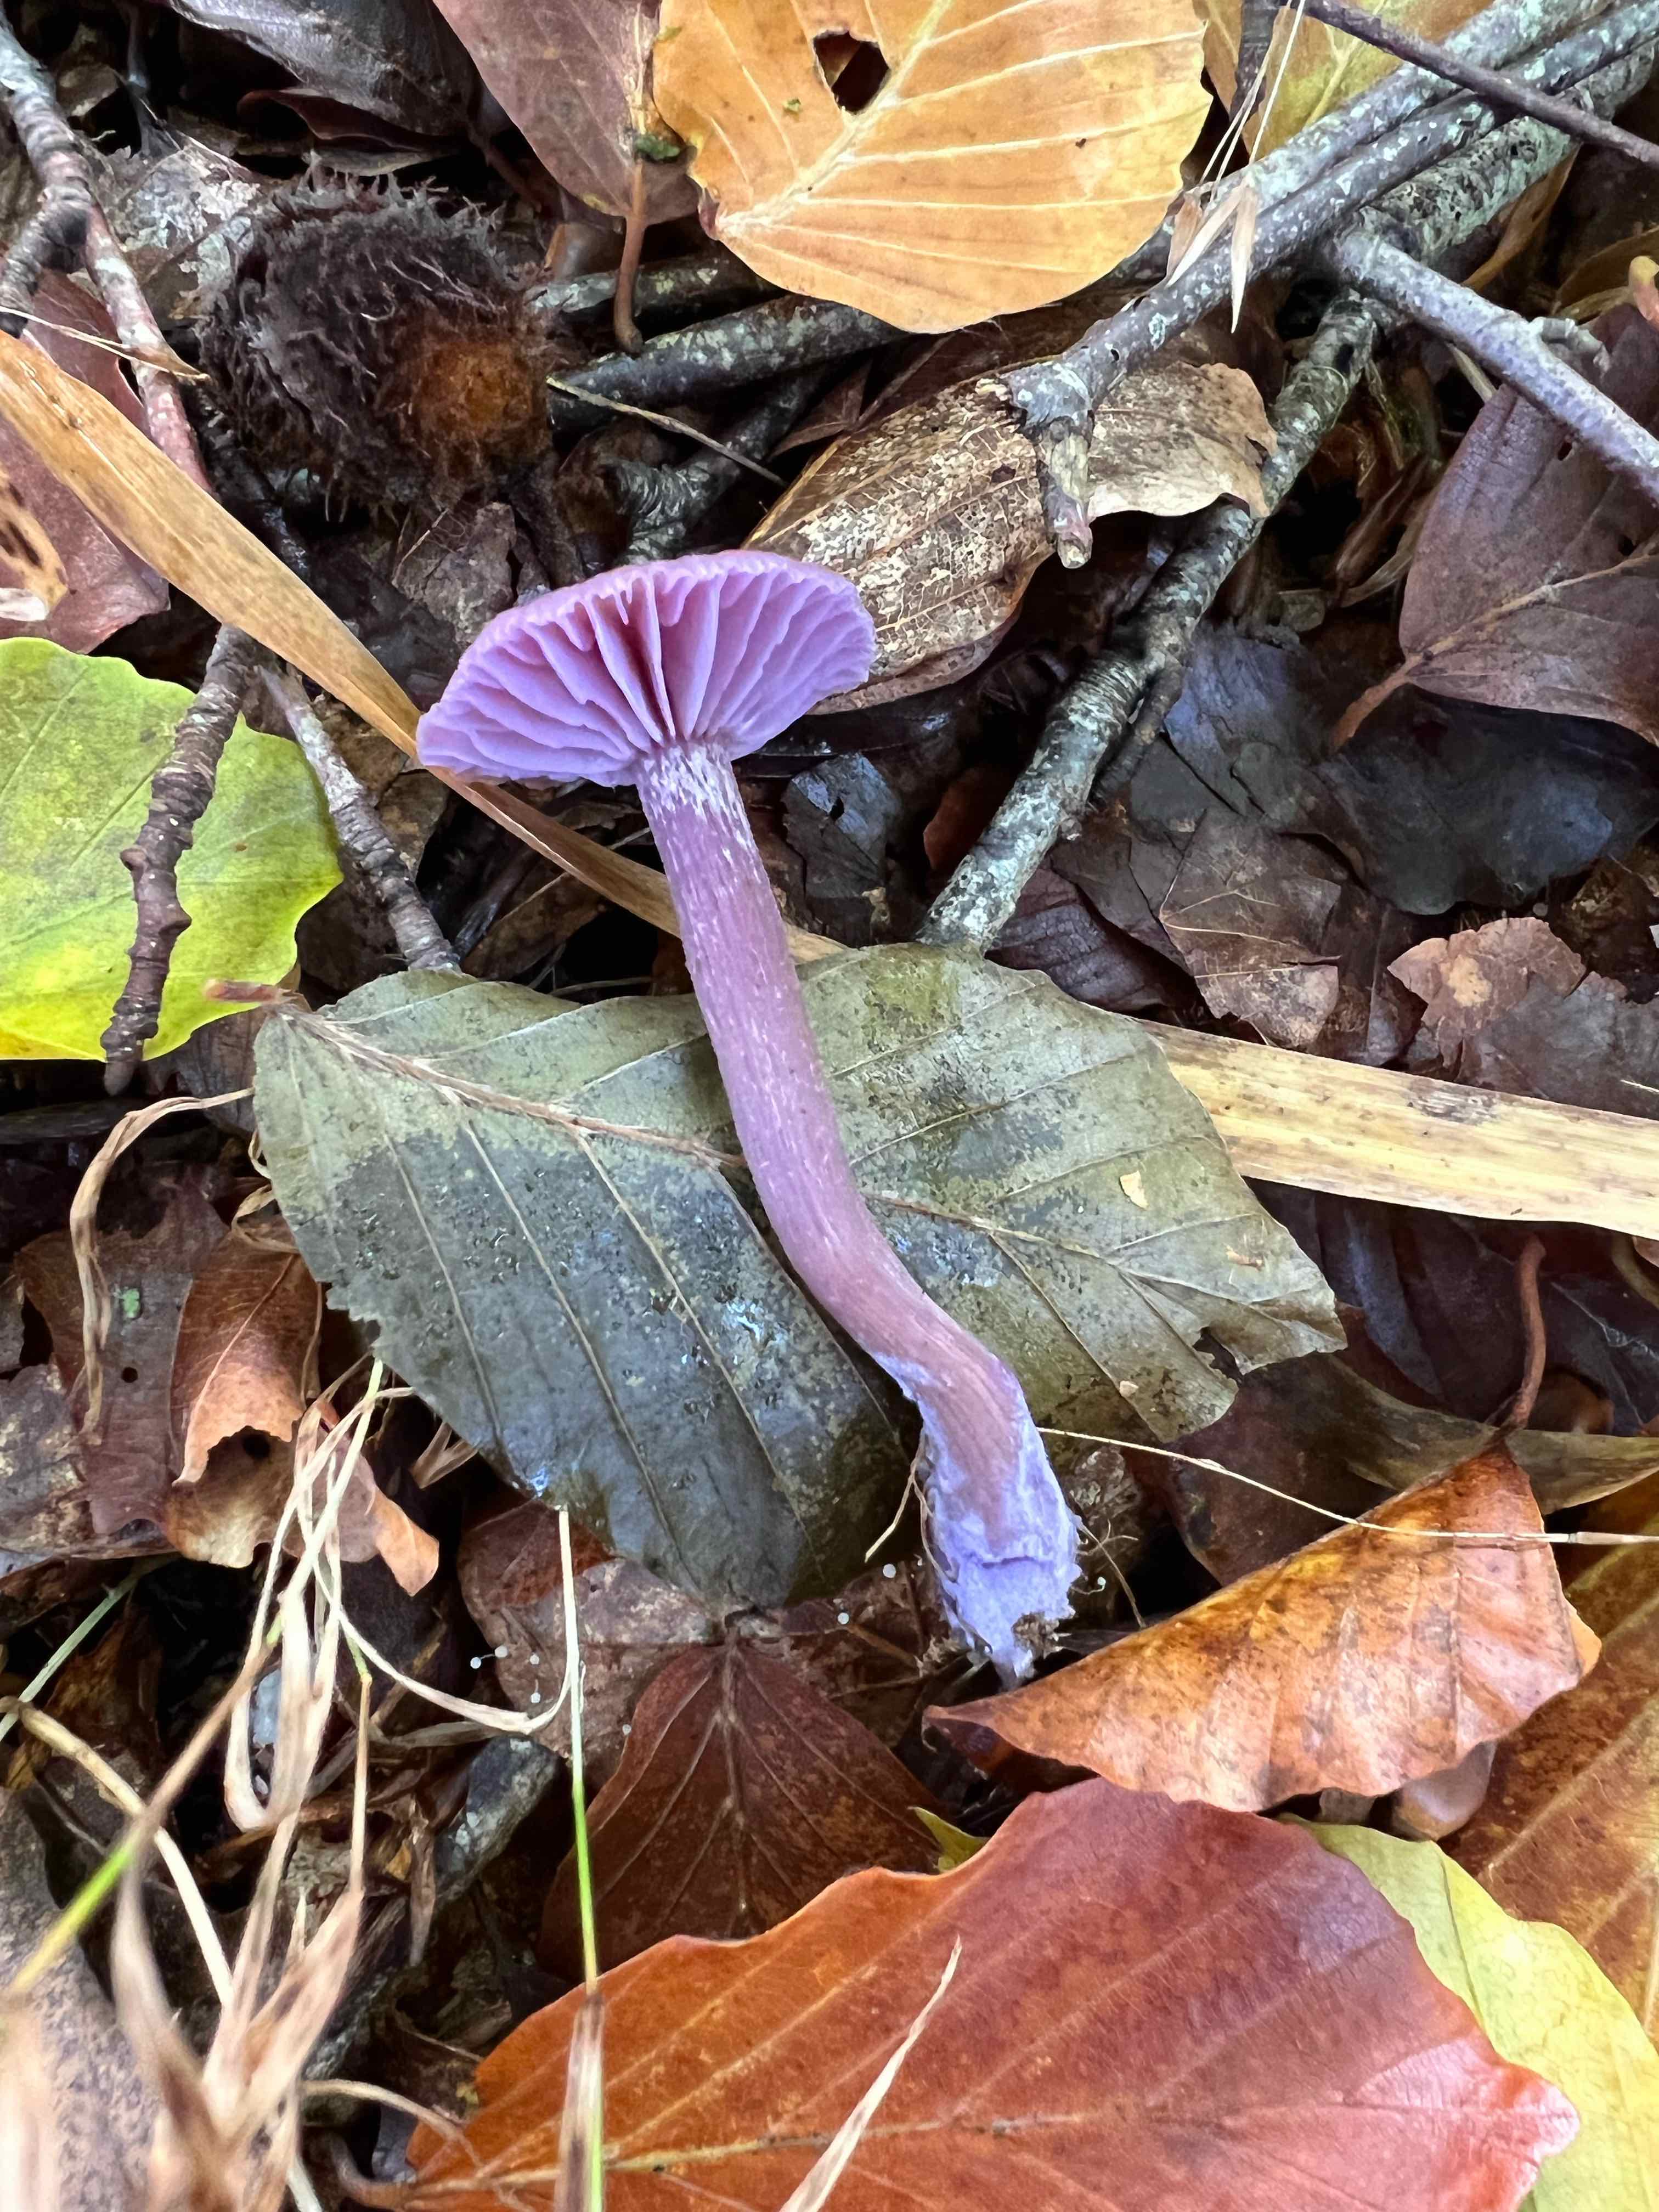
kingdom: Fungi
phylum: Basidiomycota
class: Agaricomycetes
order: Agaricales
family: Hydnangiaceae
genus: Laccaria
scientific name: Laccaria amethystina
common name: violet ametysthat
